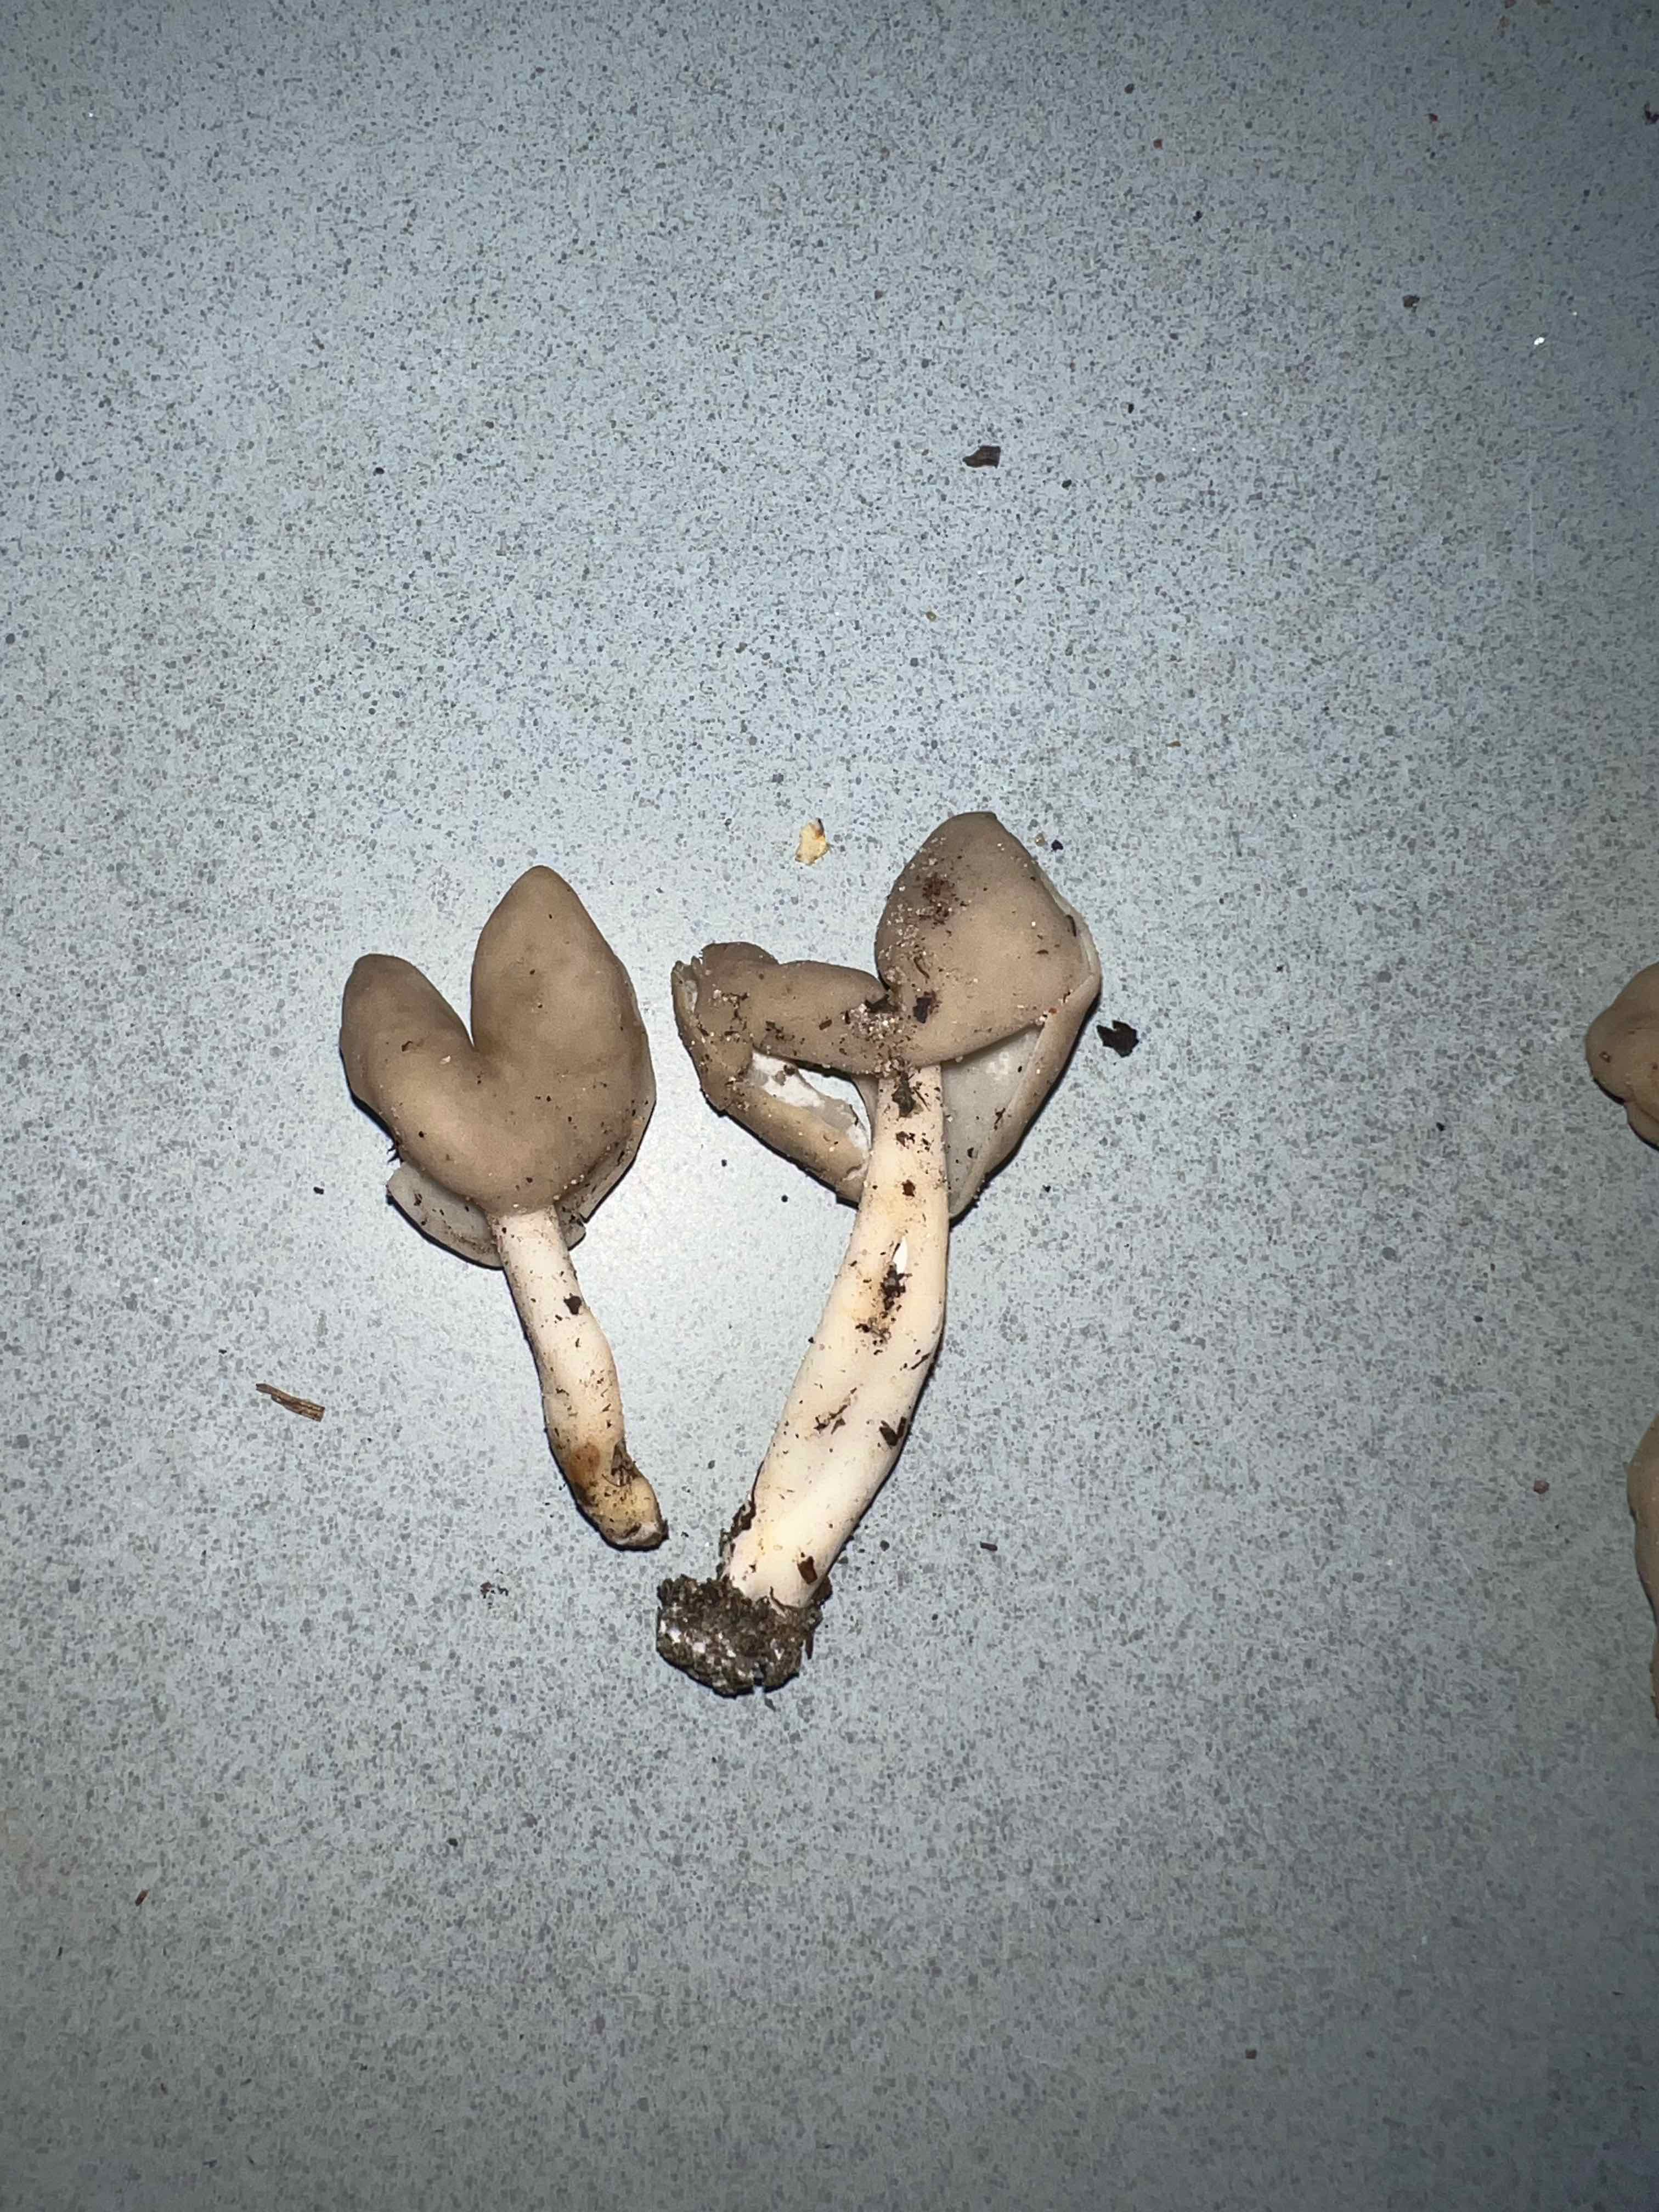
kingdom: Fungi
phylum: Ascomycota
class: Pezizomycetes
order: Pezizales
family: Helvellaceae
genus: Helvella
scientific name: Helvella elastica
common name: elastik-foldhat
